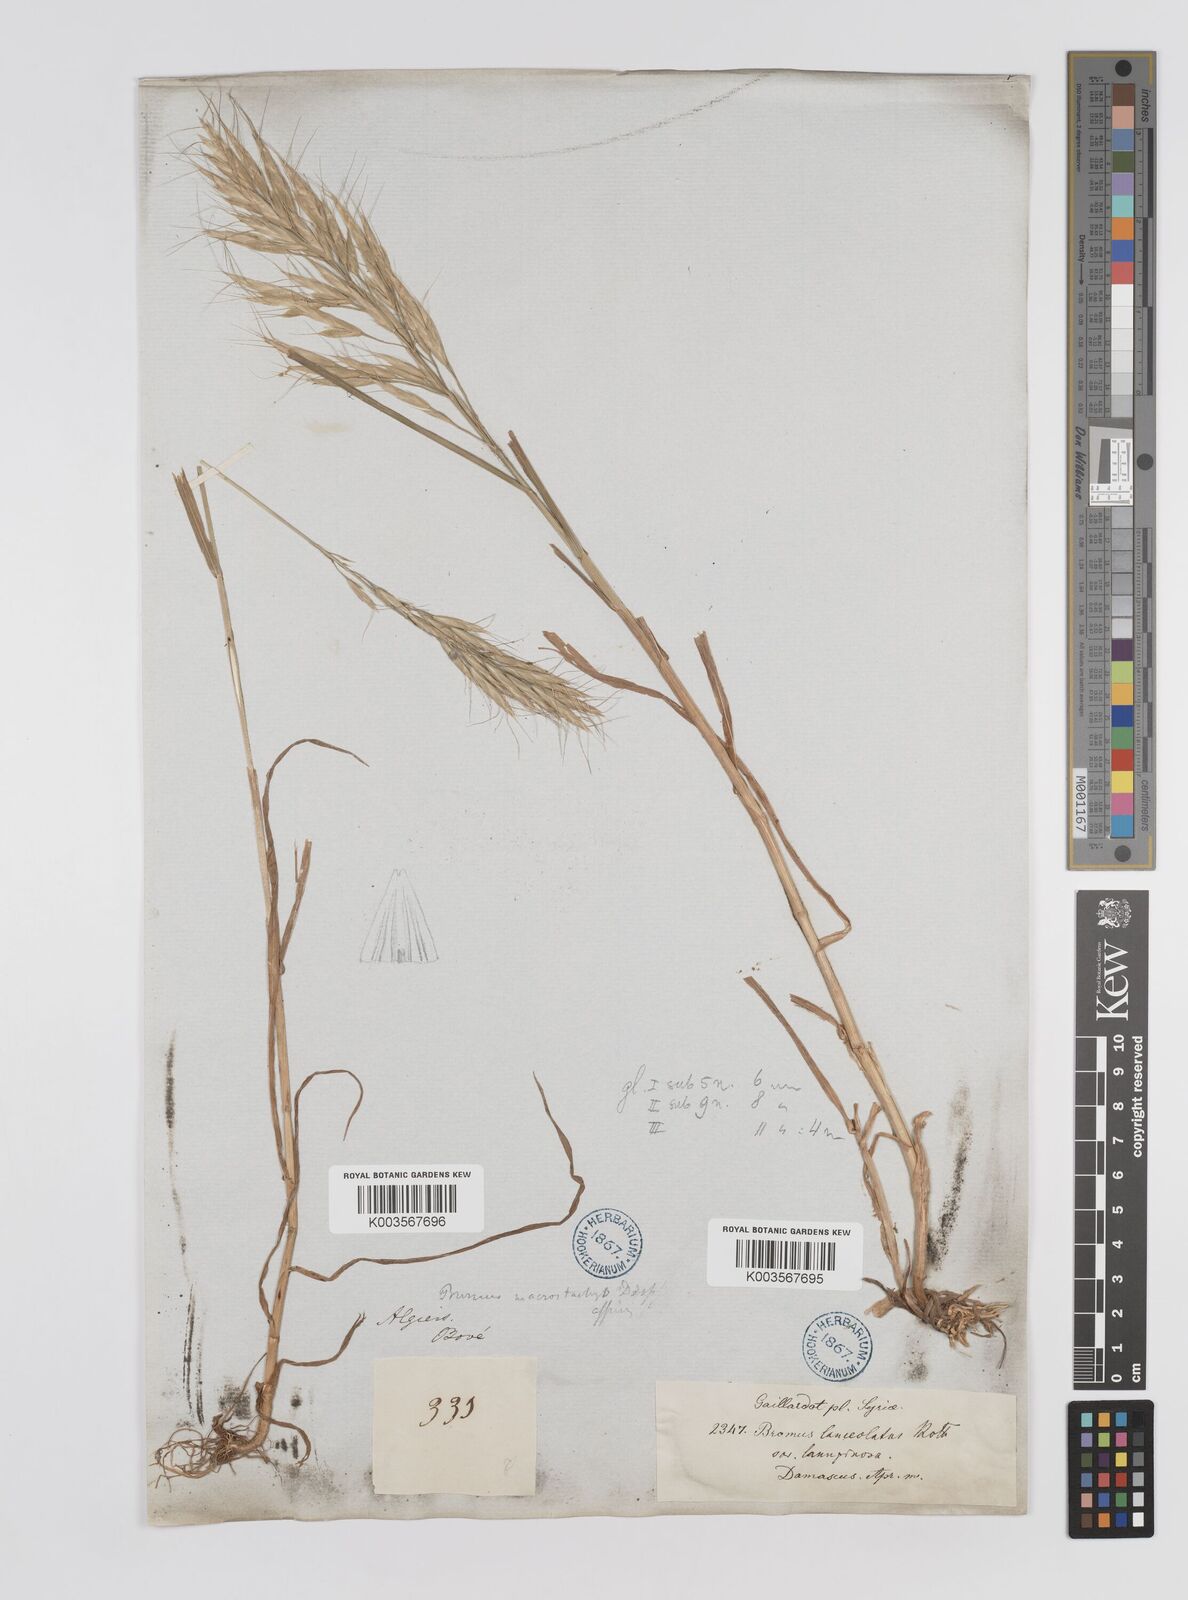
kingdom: Plantae
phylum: Tracheophyta
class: Liliopsida
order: Poales
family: Poaceae
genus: Bromus
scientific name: Bromus
